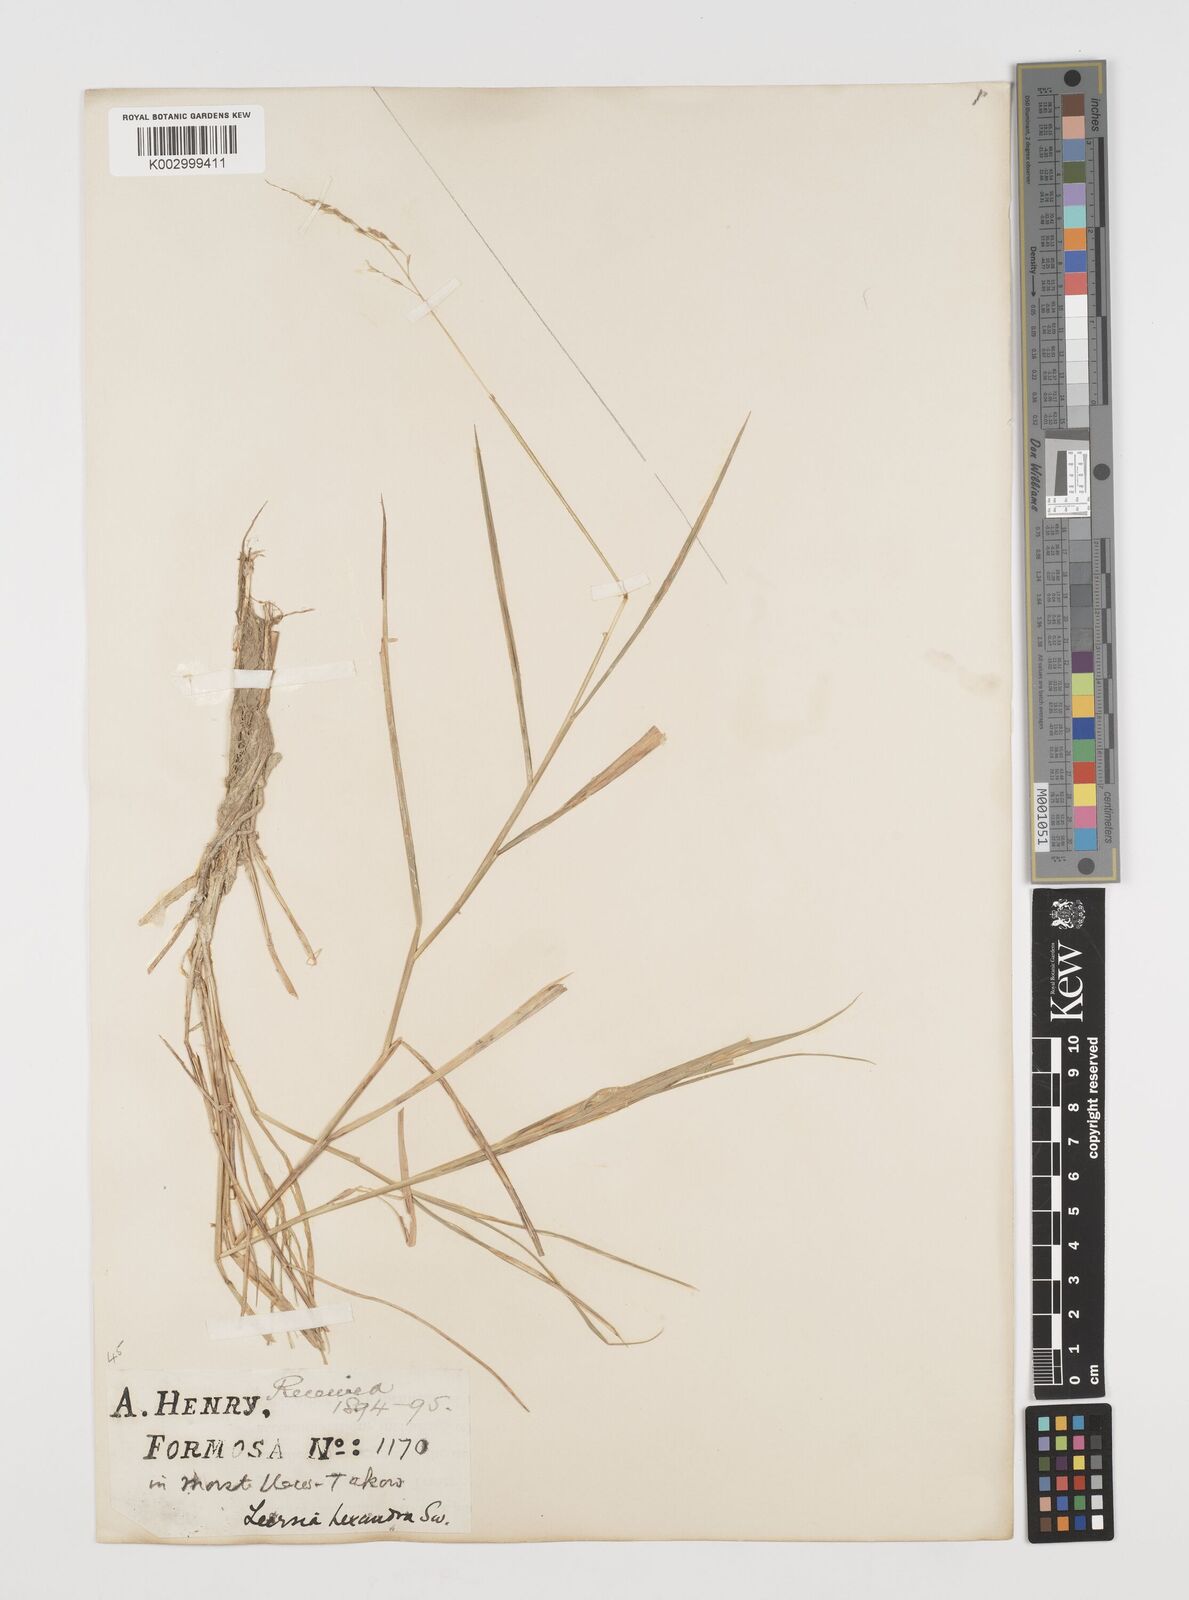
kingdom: Plantae
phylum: Tracheophyta
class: Liliopsida
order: Poales
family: Poaceae
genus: Leersia
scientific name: Leersia hexandra
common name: Southern cut grass
